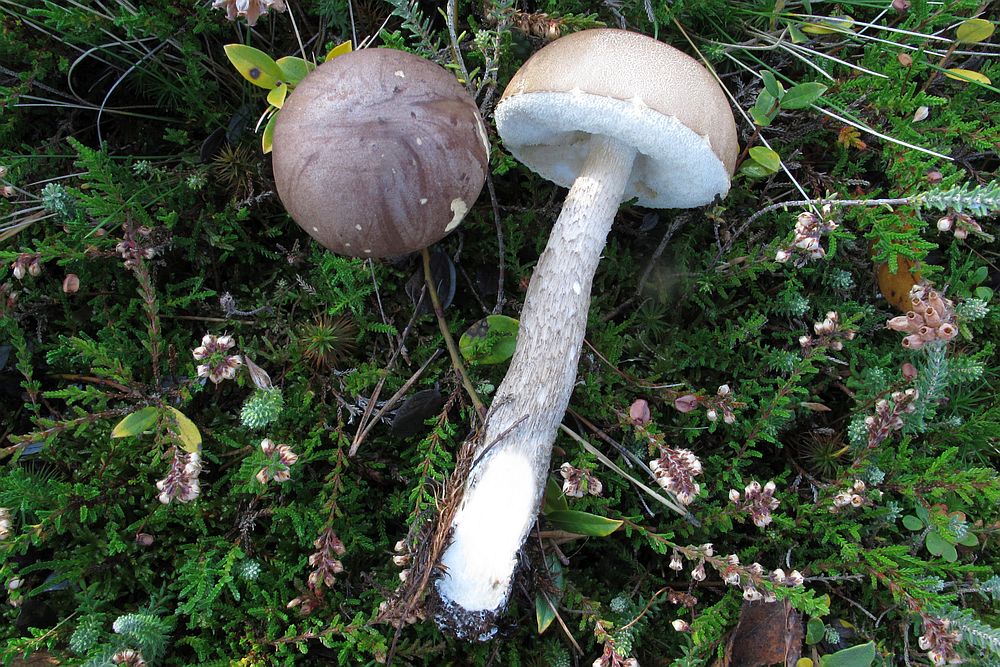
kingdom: Fungi
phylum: Basidiomycota
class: Agaricomycetes
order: Boletales
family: Boletaceae
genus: Leccinum
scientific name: Leccinum cyaneobasileucum
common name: almindelig skælrørhat
